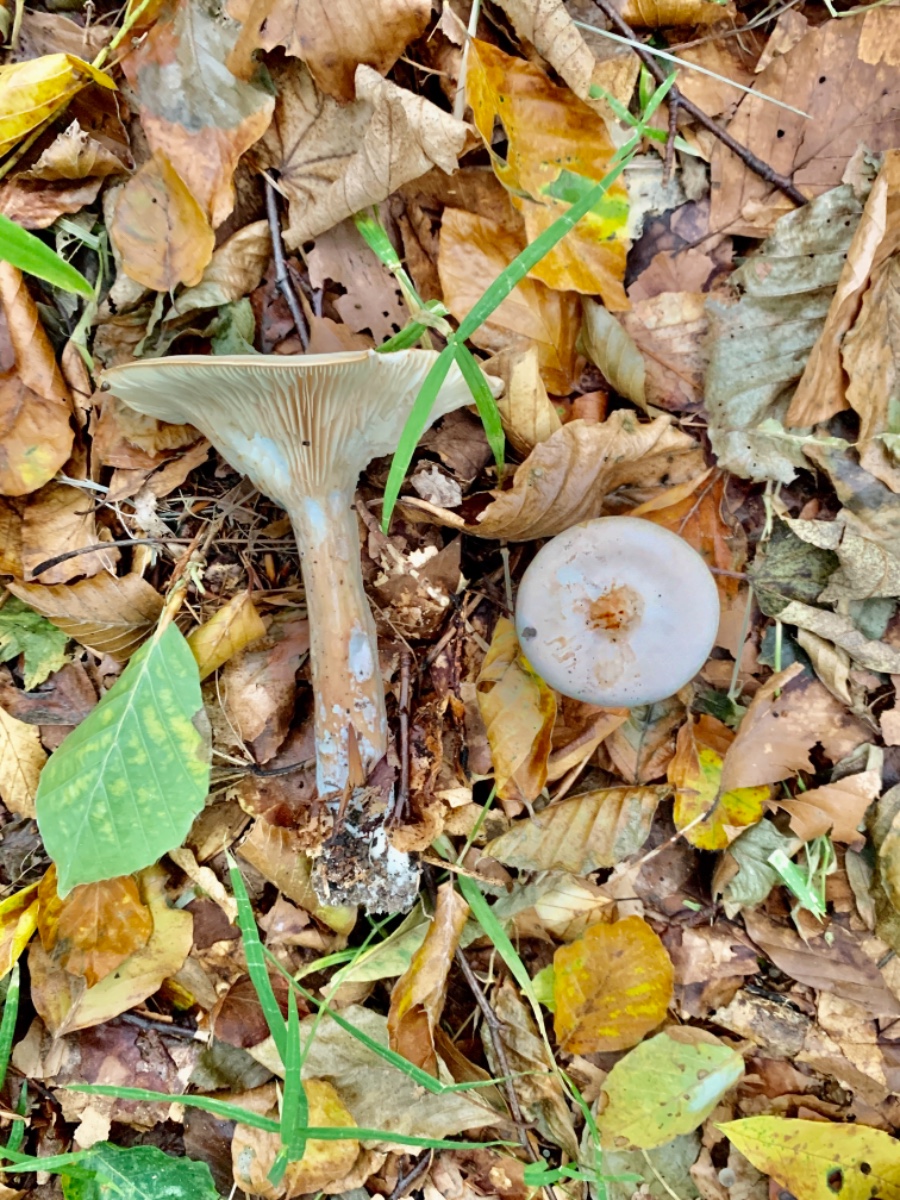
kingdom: Fungi
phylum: Basidiomycota
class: Agaricomycetes
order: Agaricales
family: Tricholomataceae
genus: Paralepista
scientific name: Paralepista flaccida
